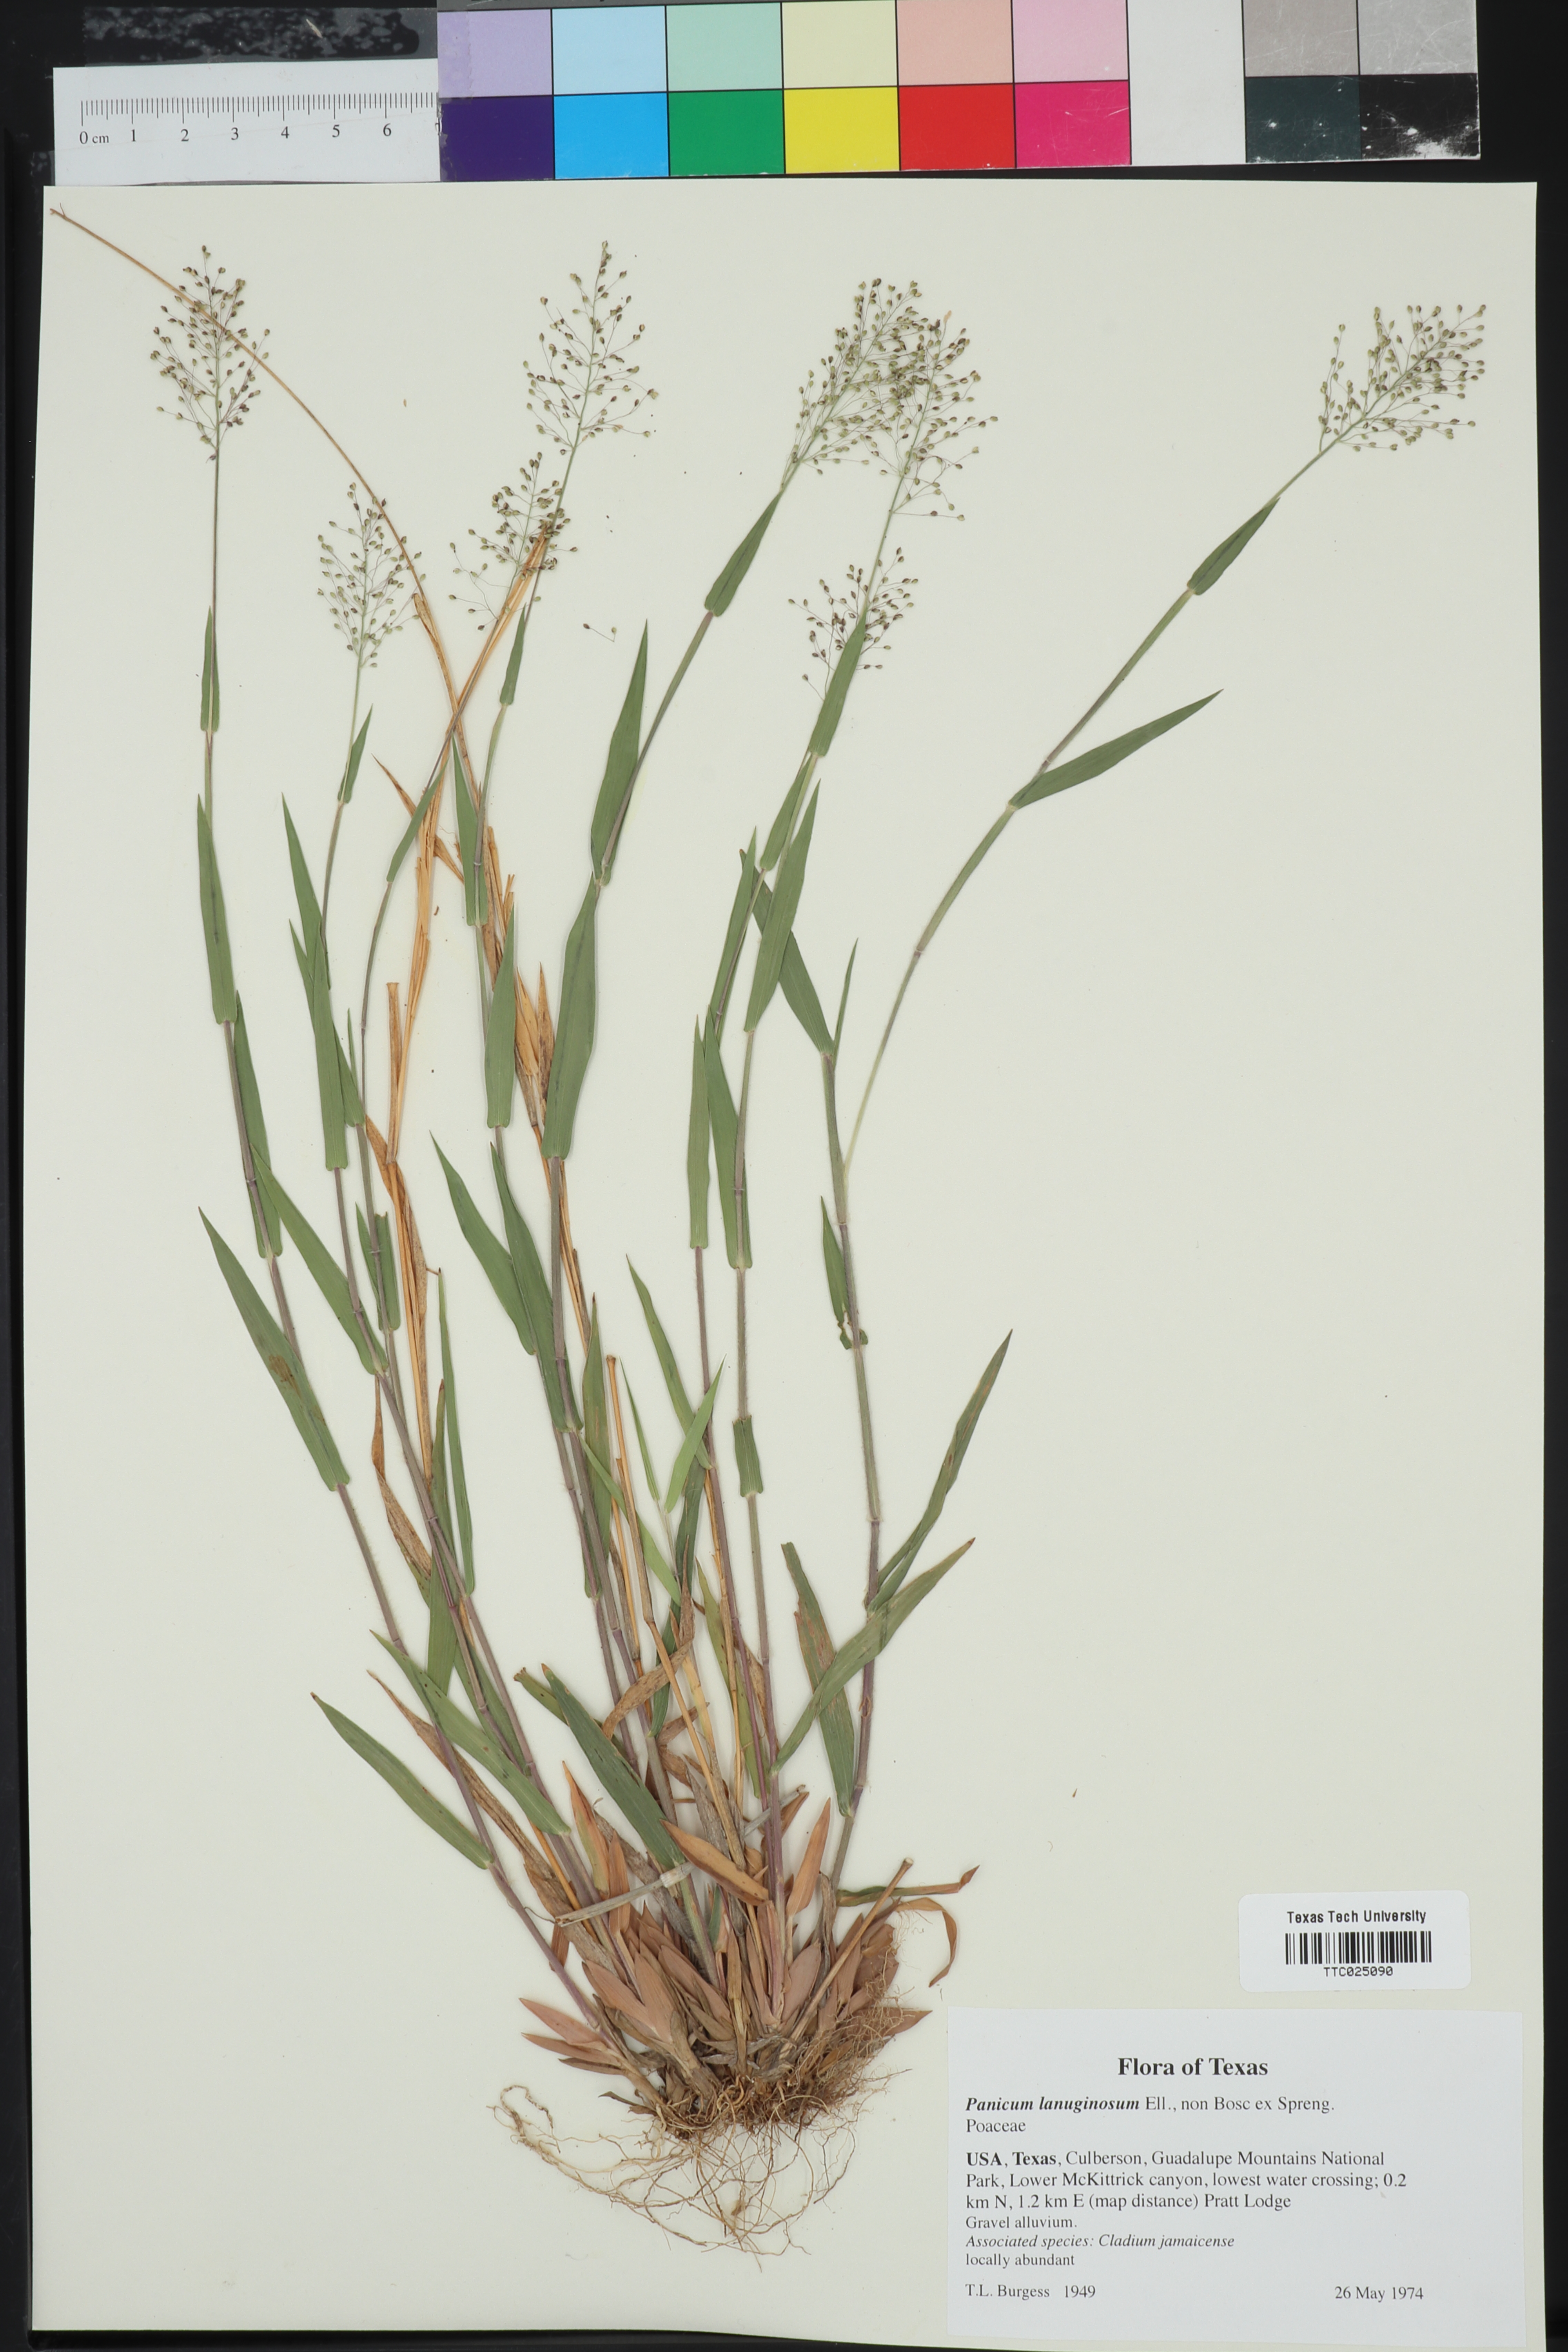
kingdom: Plantae
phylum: Tracheophyta
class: Liliopsida
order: Poales
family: Poaceae
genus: Dichanthelium
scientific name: Dichanthelium lanuginosum
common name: Woolly panicgrass
